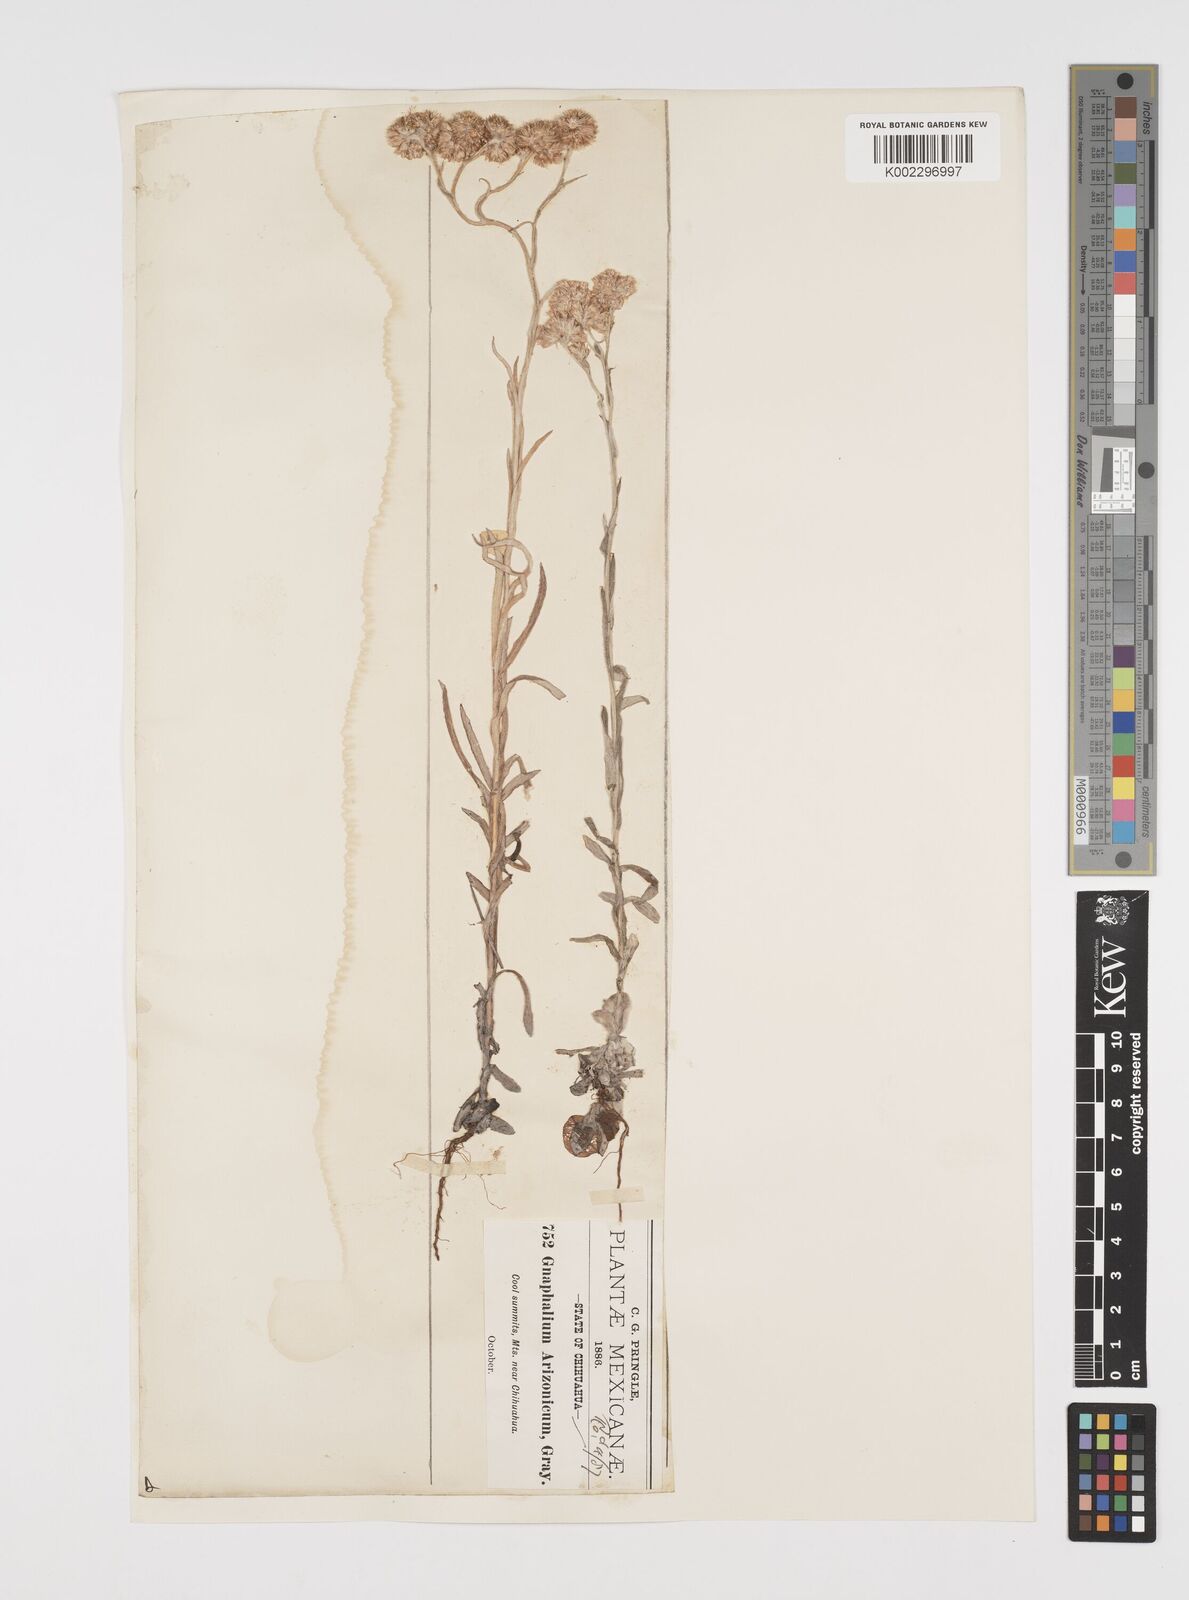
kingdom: Plantae
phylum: Tracheophyta
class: Magnoliopsida
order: Asterales
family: Asteraceae
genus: Pseudognaphalium
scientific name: Pseudognaphalium arizonicum
